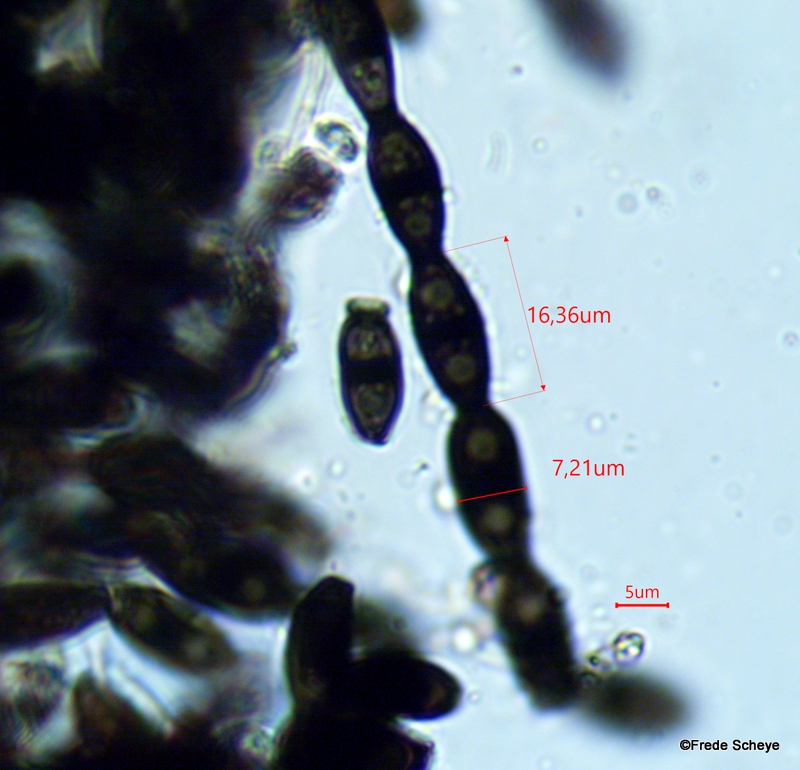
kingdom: Fungi
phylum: Ascomycota
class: Leotiomycetes
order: Helotiales
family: Helotiaceae
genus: Bispora
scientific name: Bispora pallescens
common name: måtte-snitskive
